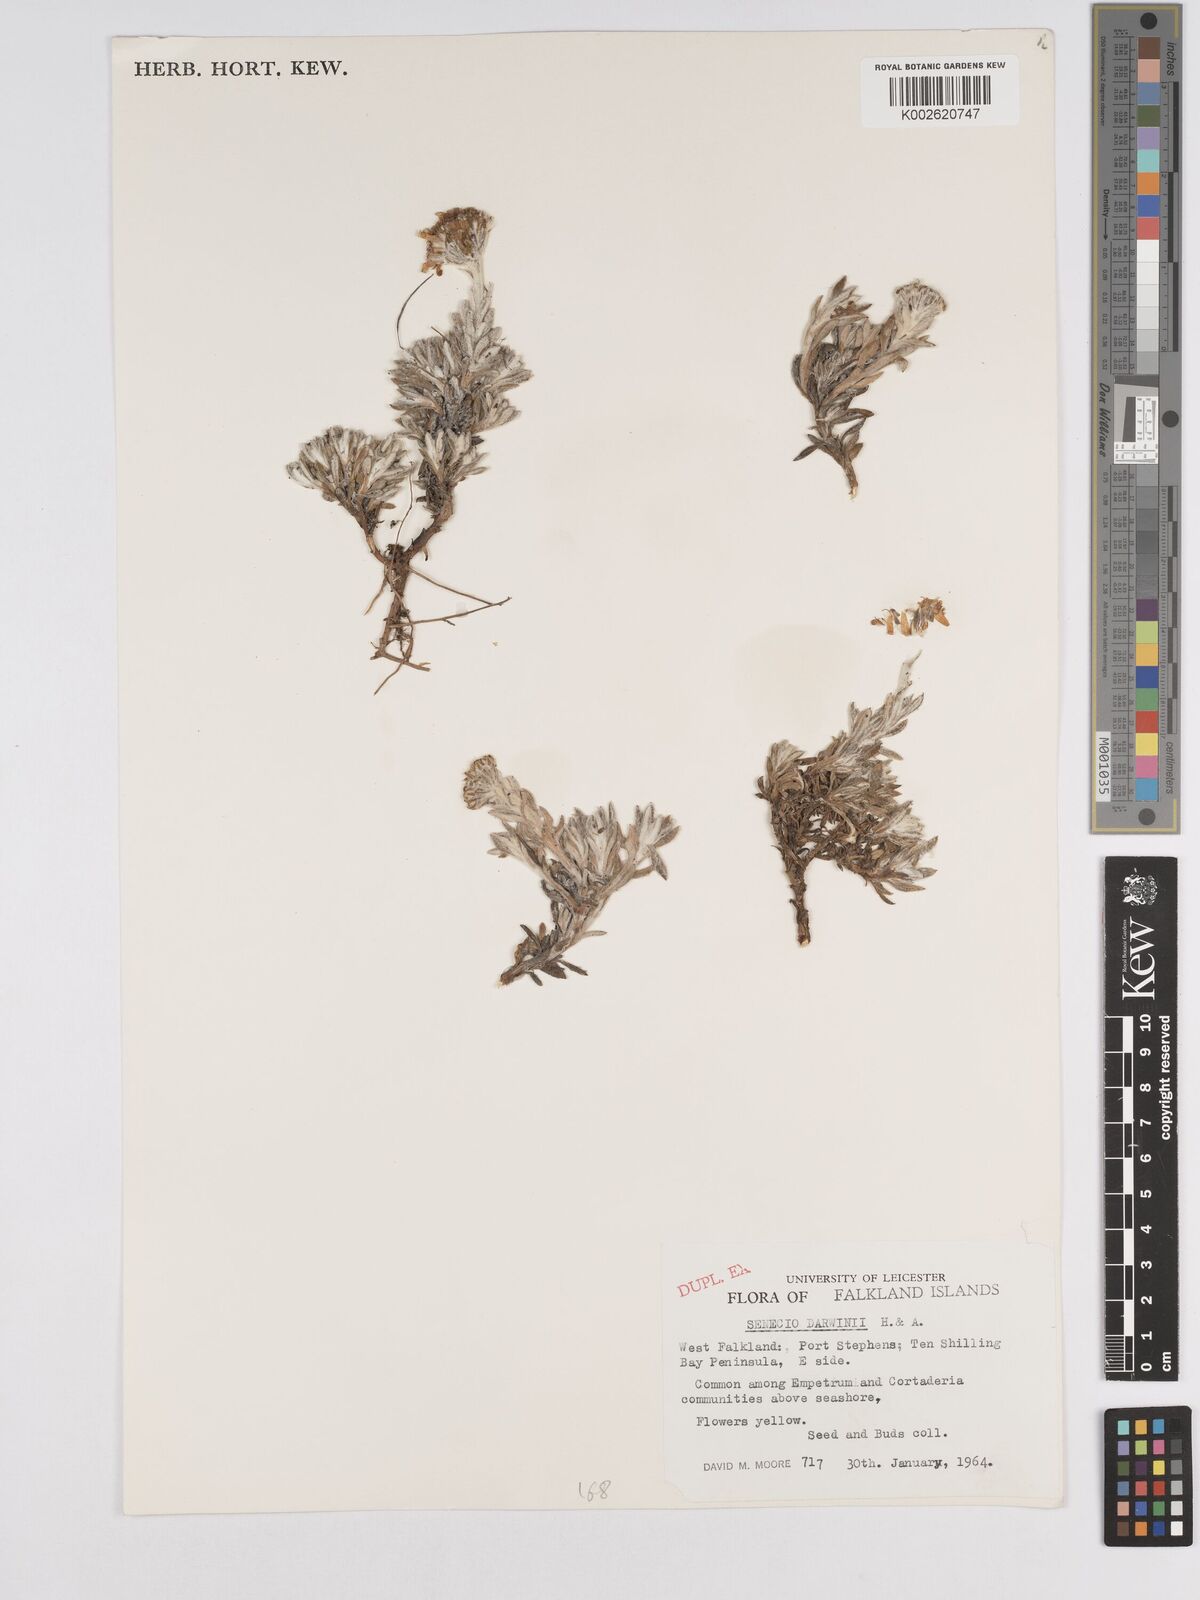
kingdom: Plantae
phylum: Tracheophyta
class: Magnoliopsida
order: Asterales
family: Asteraceae
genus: Senecio
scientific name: Senecio darwinii
